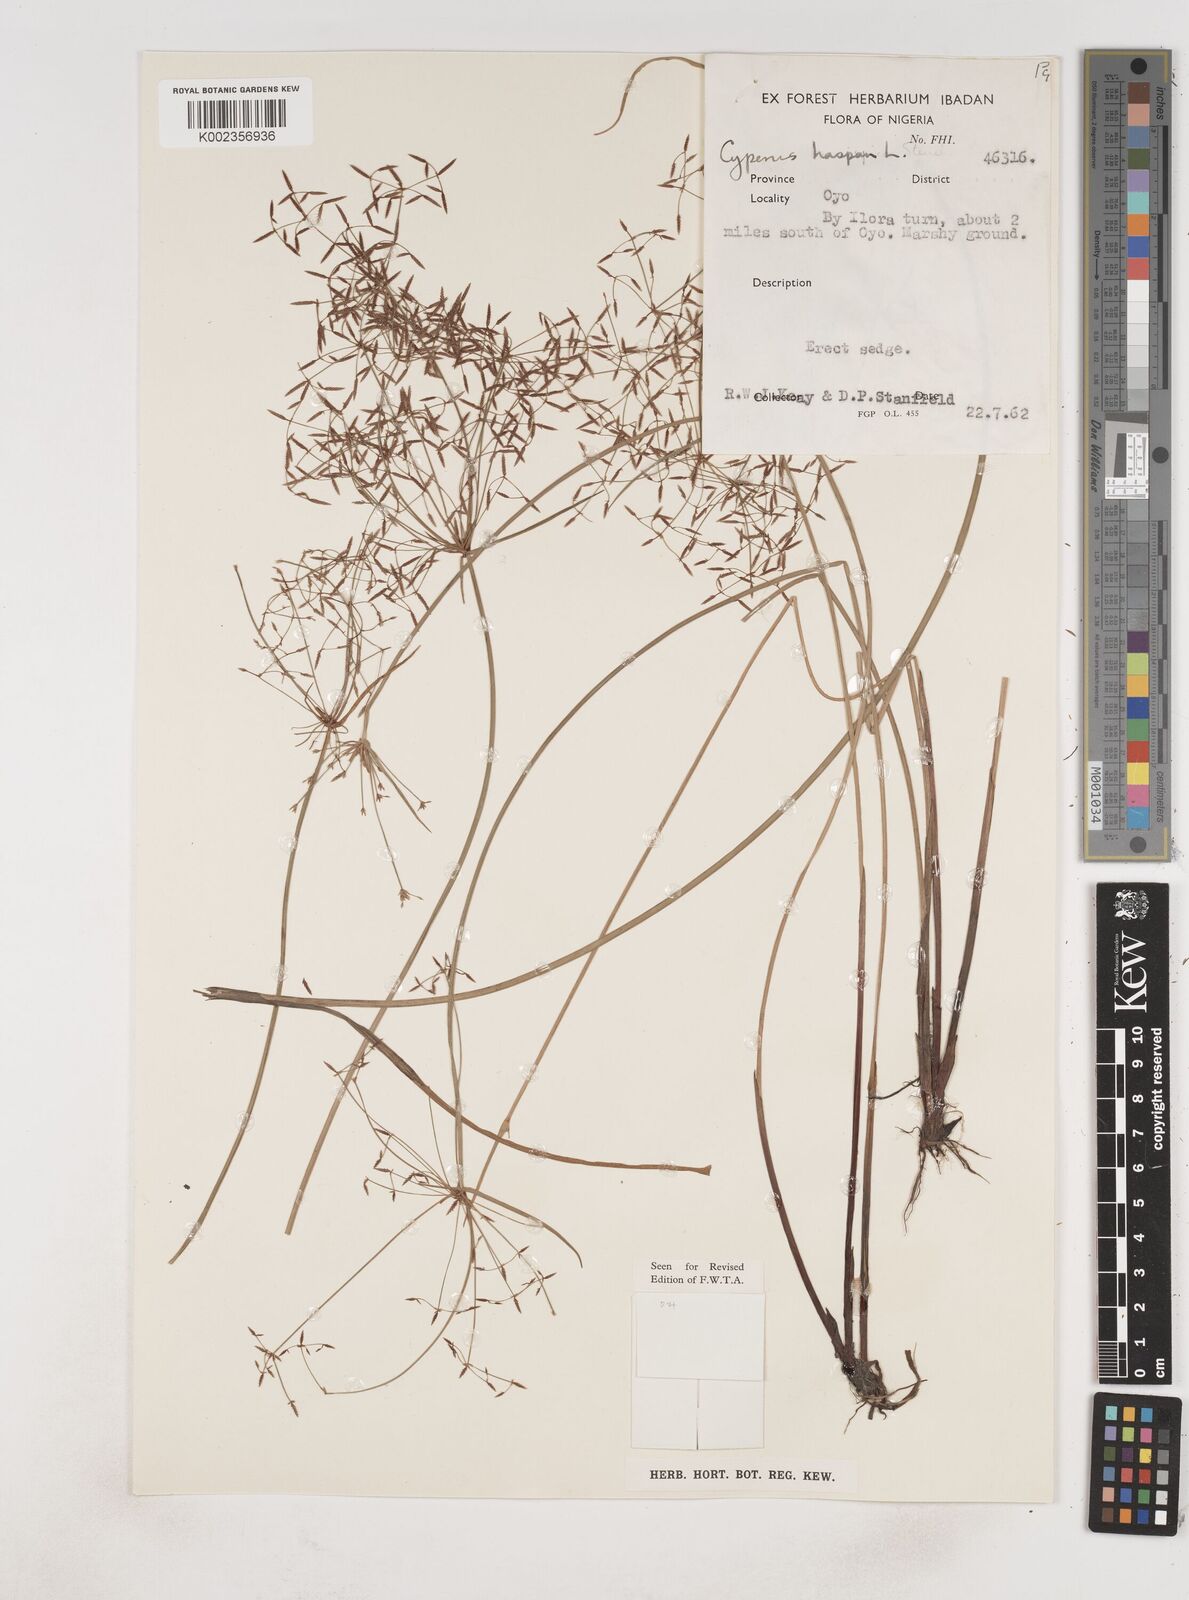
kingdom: Plantae
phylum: Tracheophyta
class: Liliopsida
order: Poales
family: Cyperaceae
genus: Cyperus
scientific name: Cyperus haspan
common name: Haspan flatsedge
